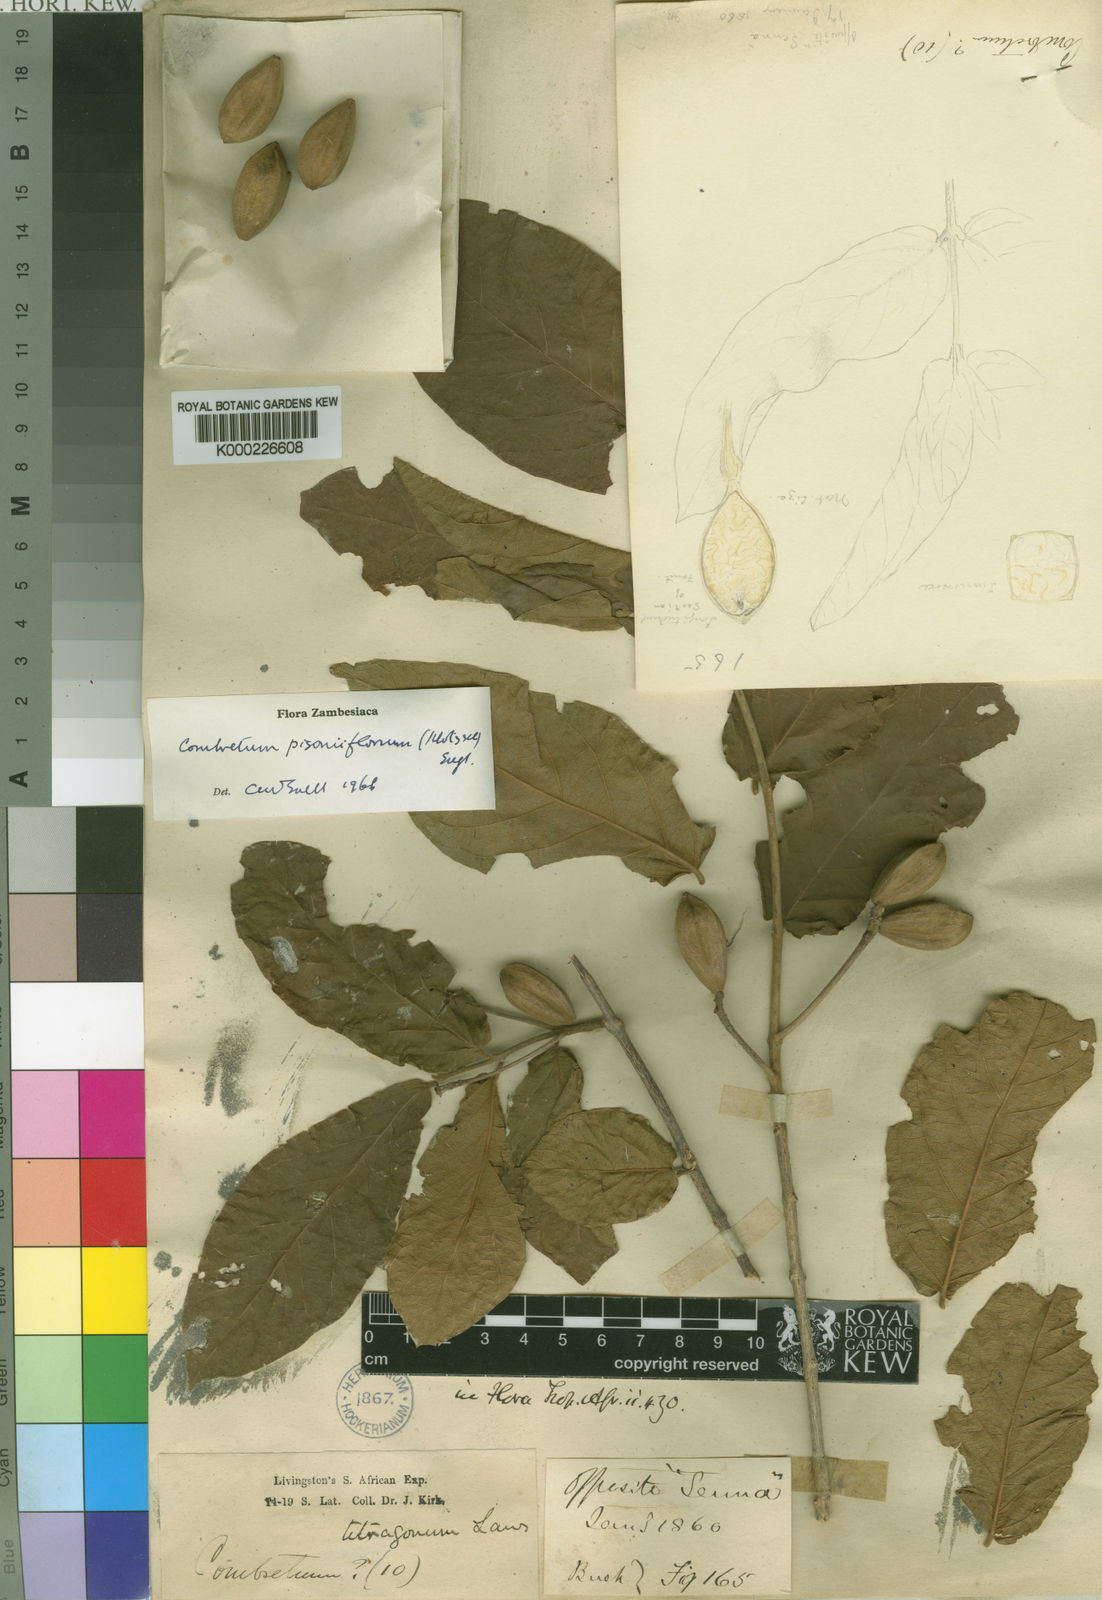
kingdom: Plantae
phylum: Tracheophyta
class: Magnoliopsida
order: Myrtales
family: Combretaceae
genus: Combretum
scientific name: Combretum pisoniiflorum
